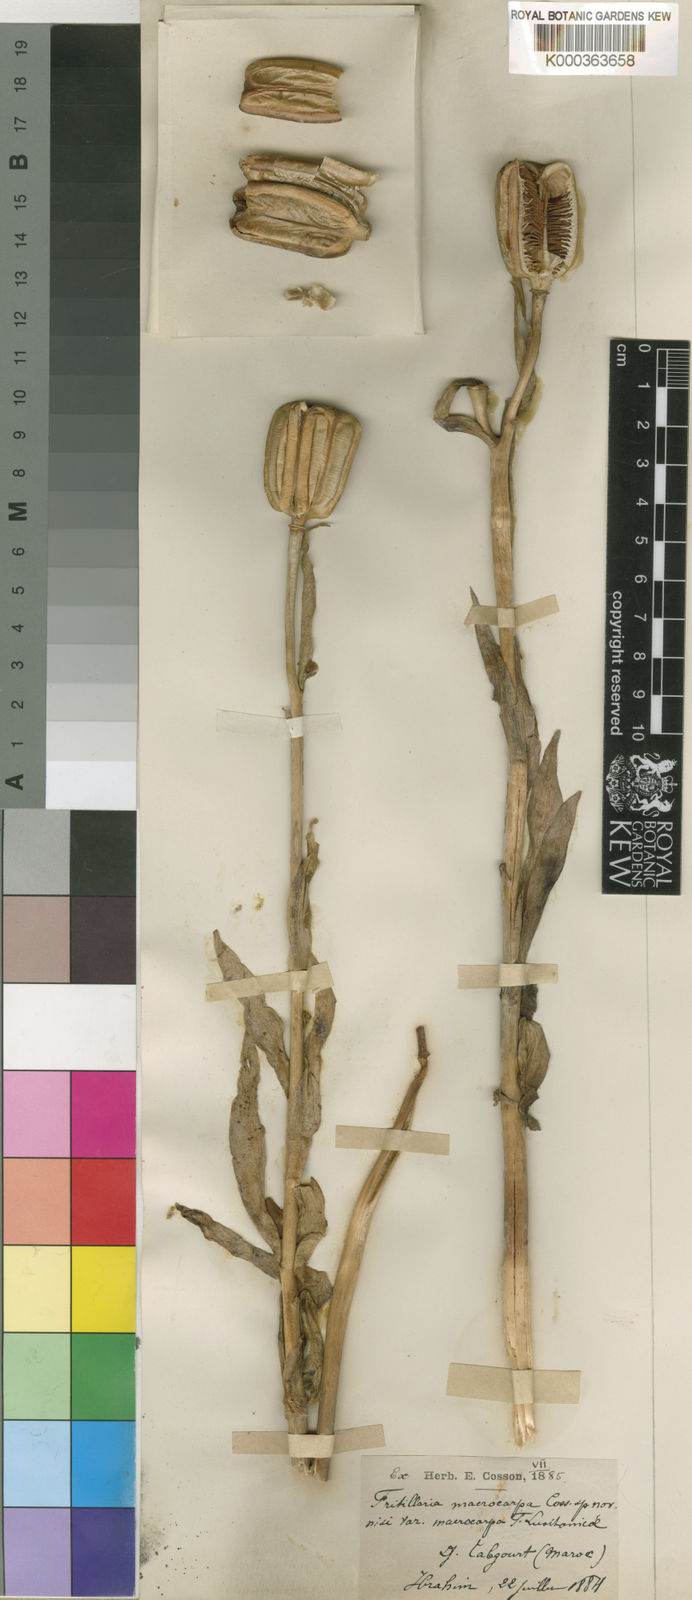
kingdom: Plantae
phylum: Tracheophyta
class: Liliopsida
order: Liliales
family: Liliaceae
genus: Fritillaria
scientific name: Fritillaria macrocarpa
